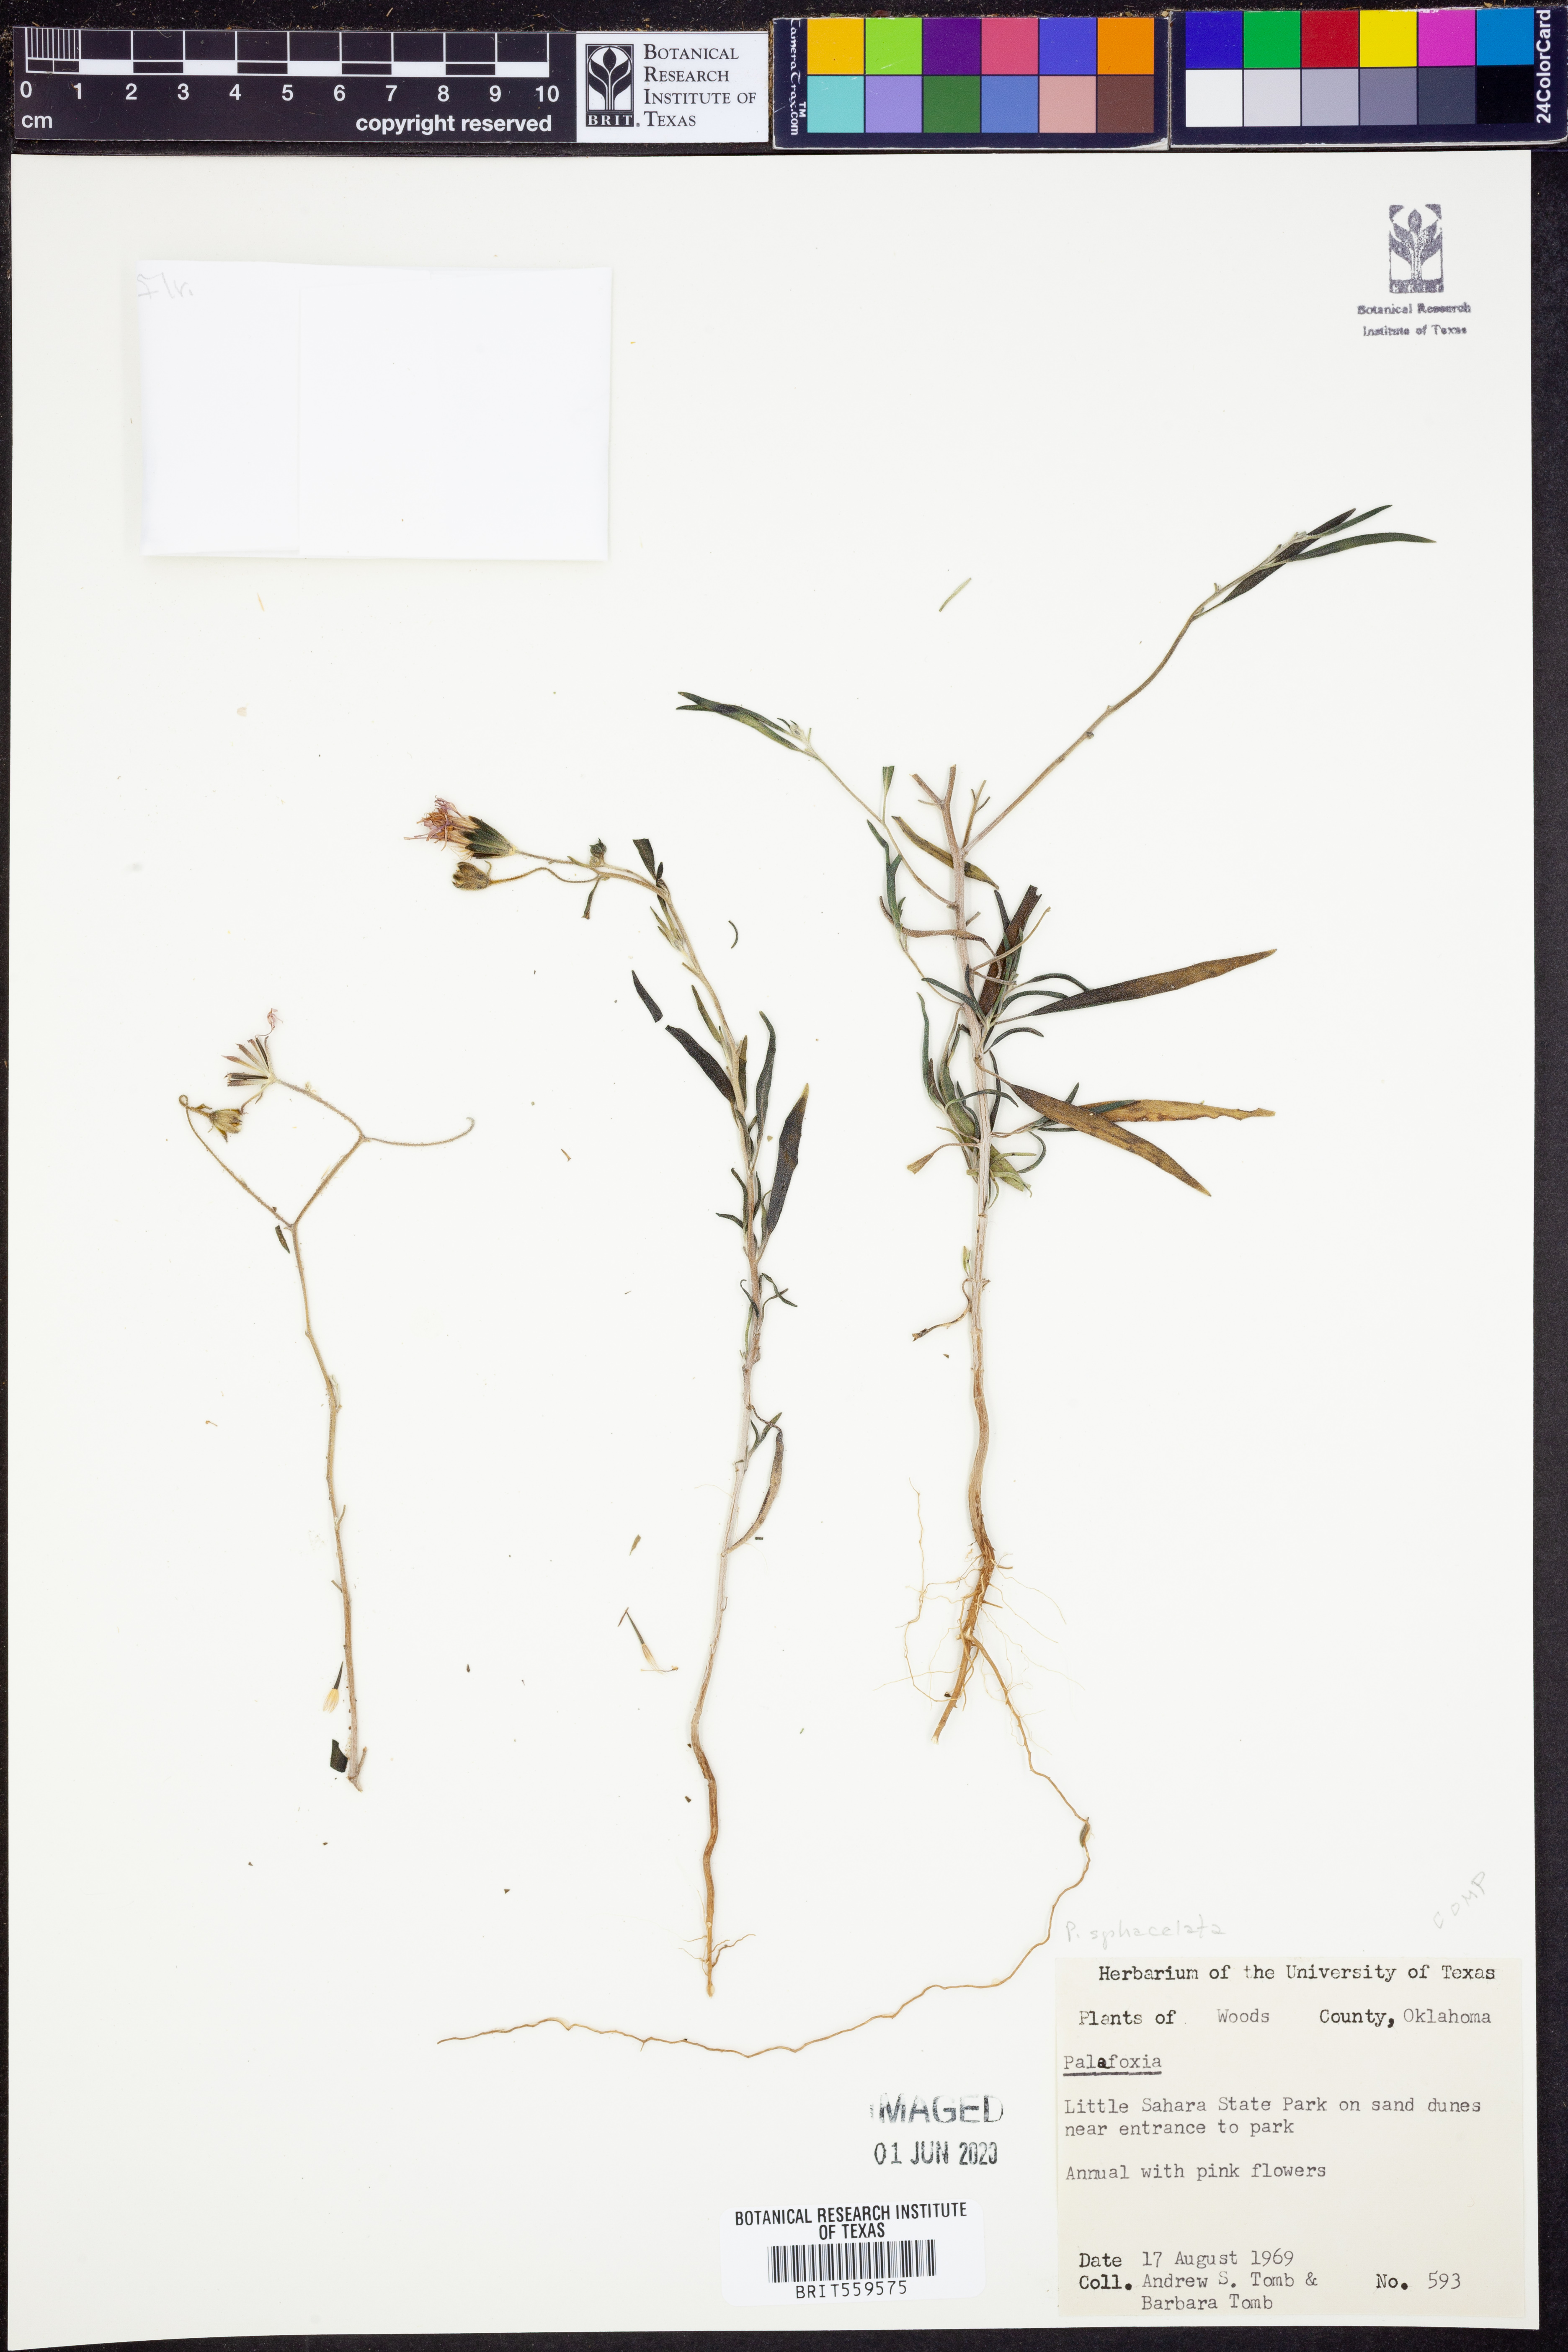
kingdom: Plantae
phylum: Tracheophyta
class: Magnoliopsida
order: Asterales
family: Asteraceae
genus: Palafoxia
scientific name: Palafoxia sphacelata
